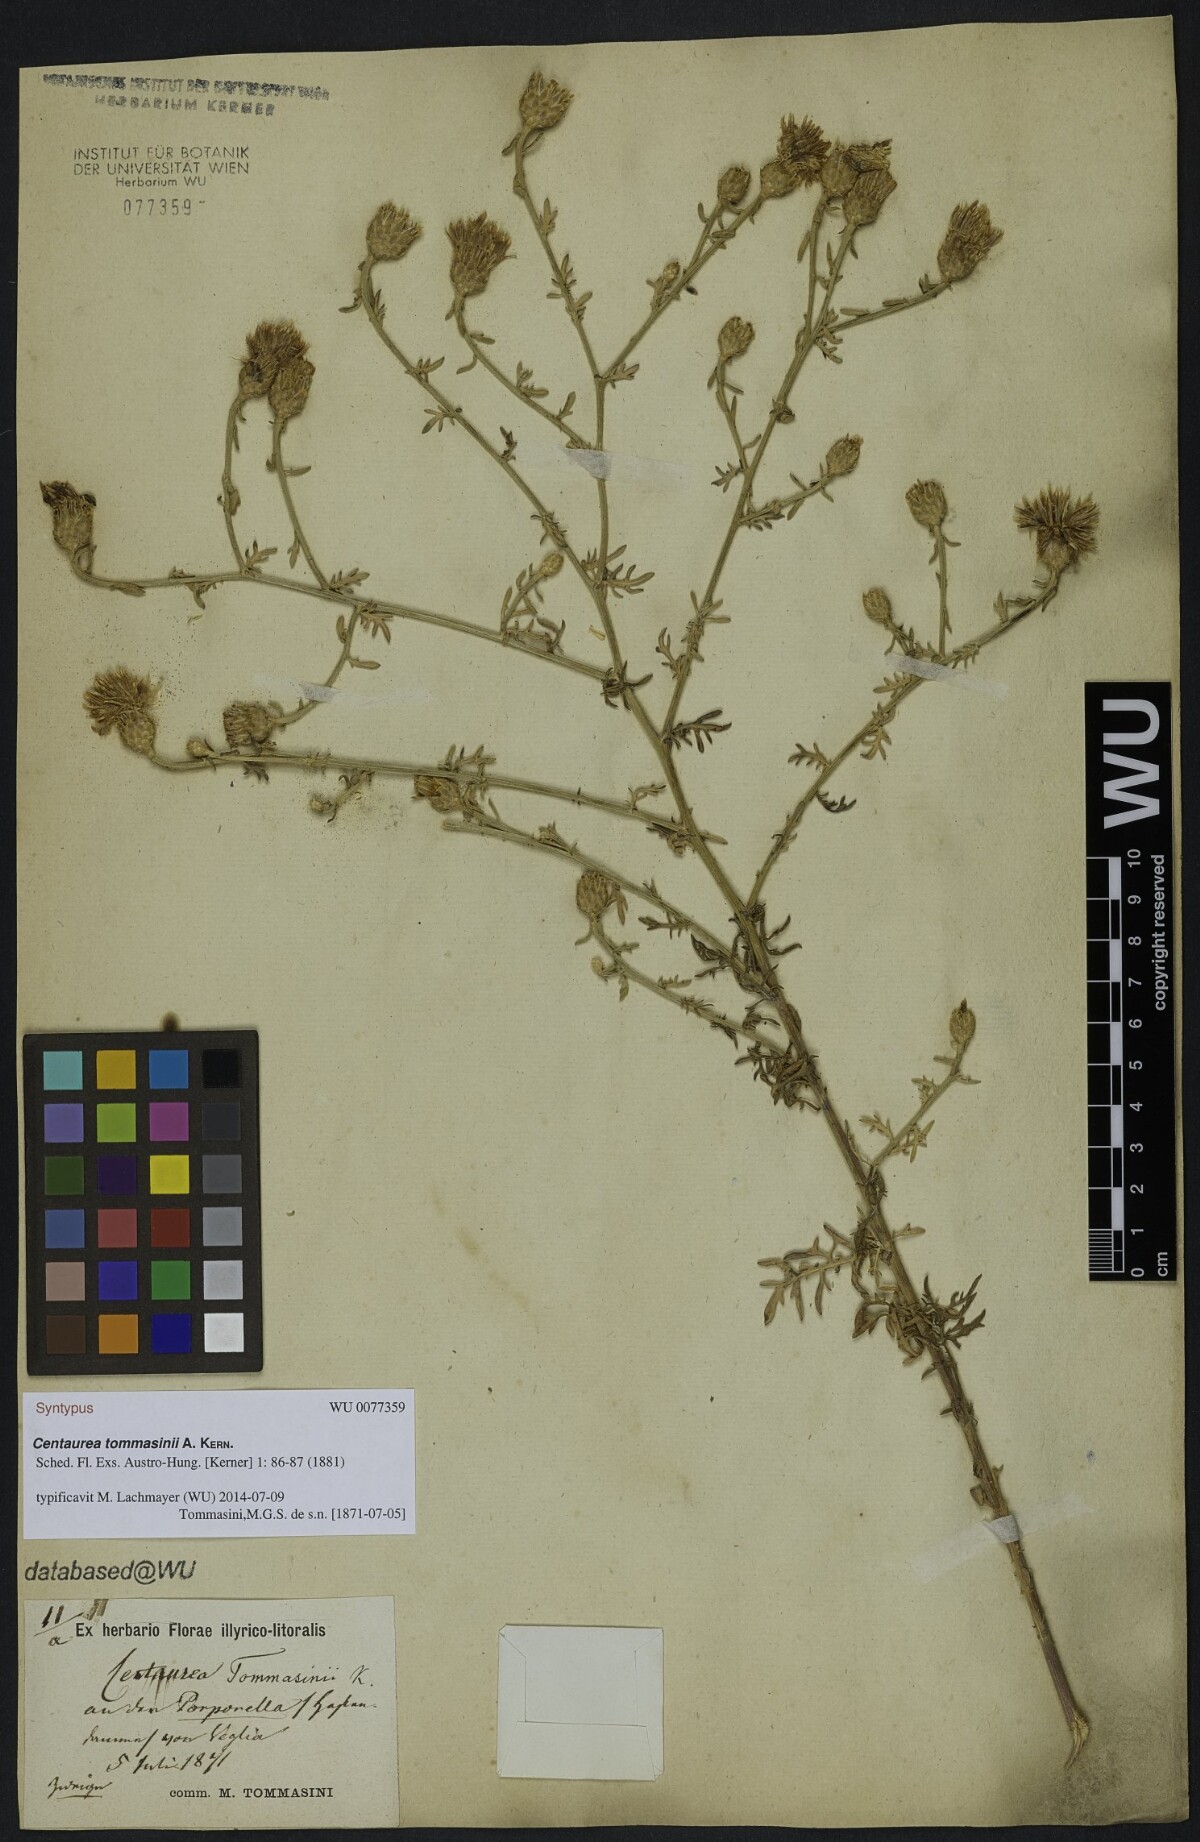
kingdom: Plantae
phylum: Tracheophyta
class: Magnoliopsida
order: Asterales
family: Asteraceae
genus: Centaurea
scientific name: Centaurea tommasinii
